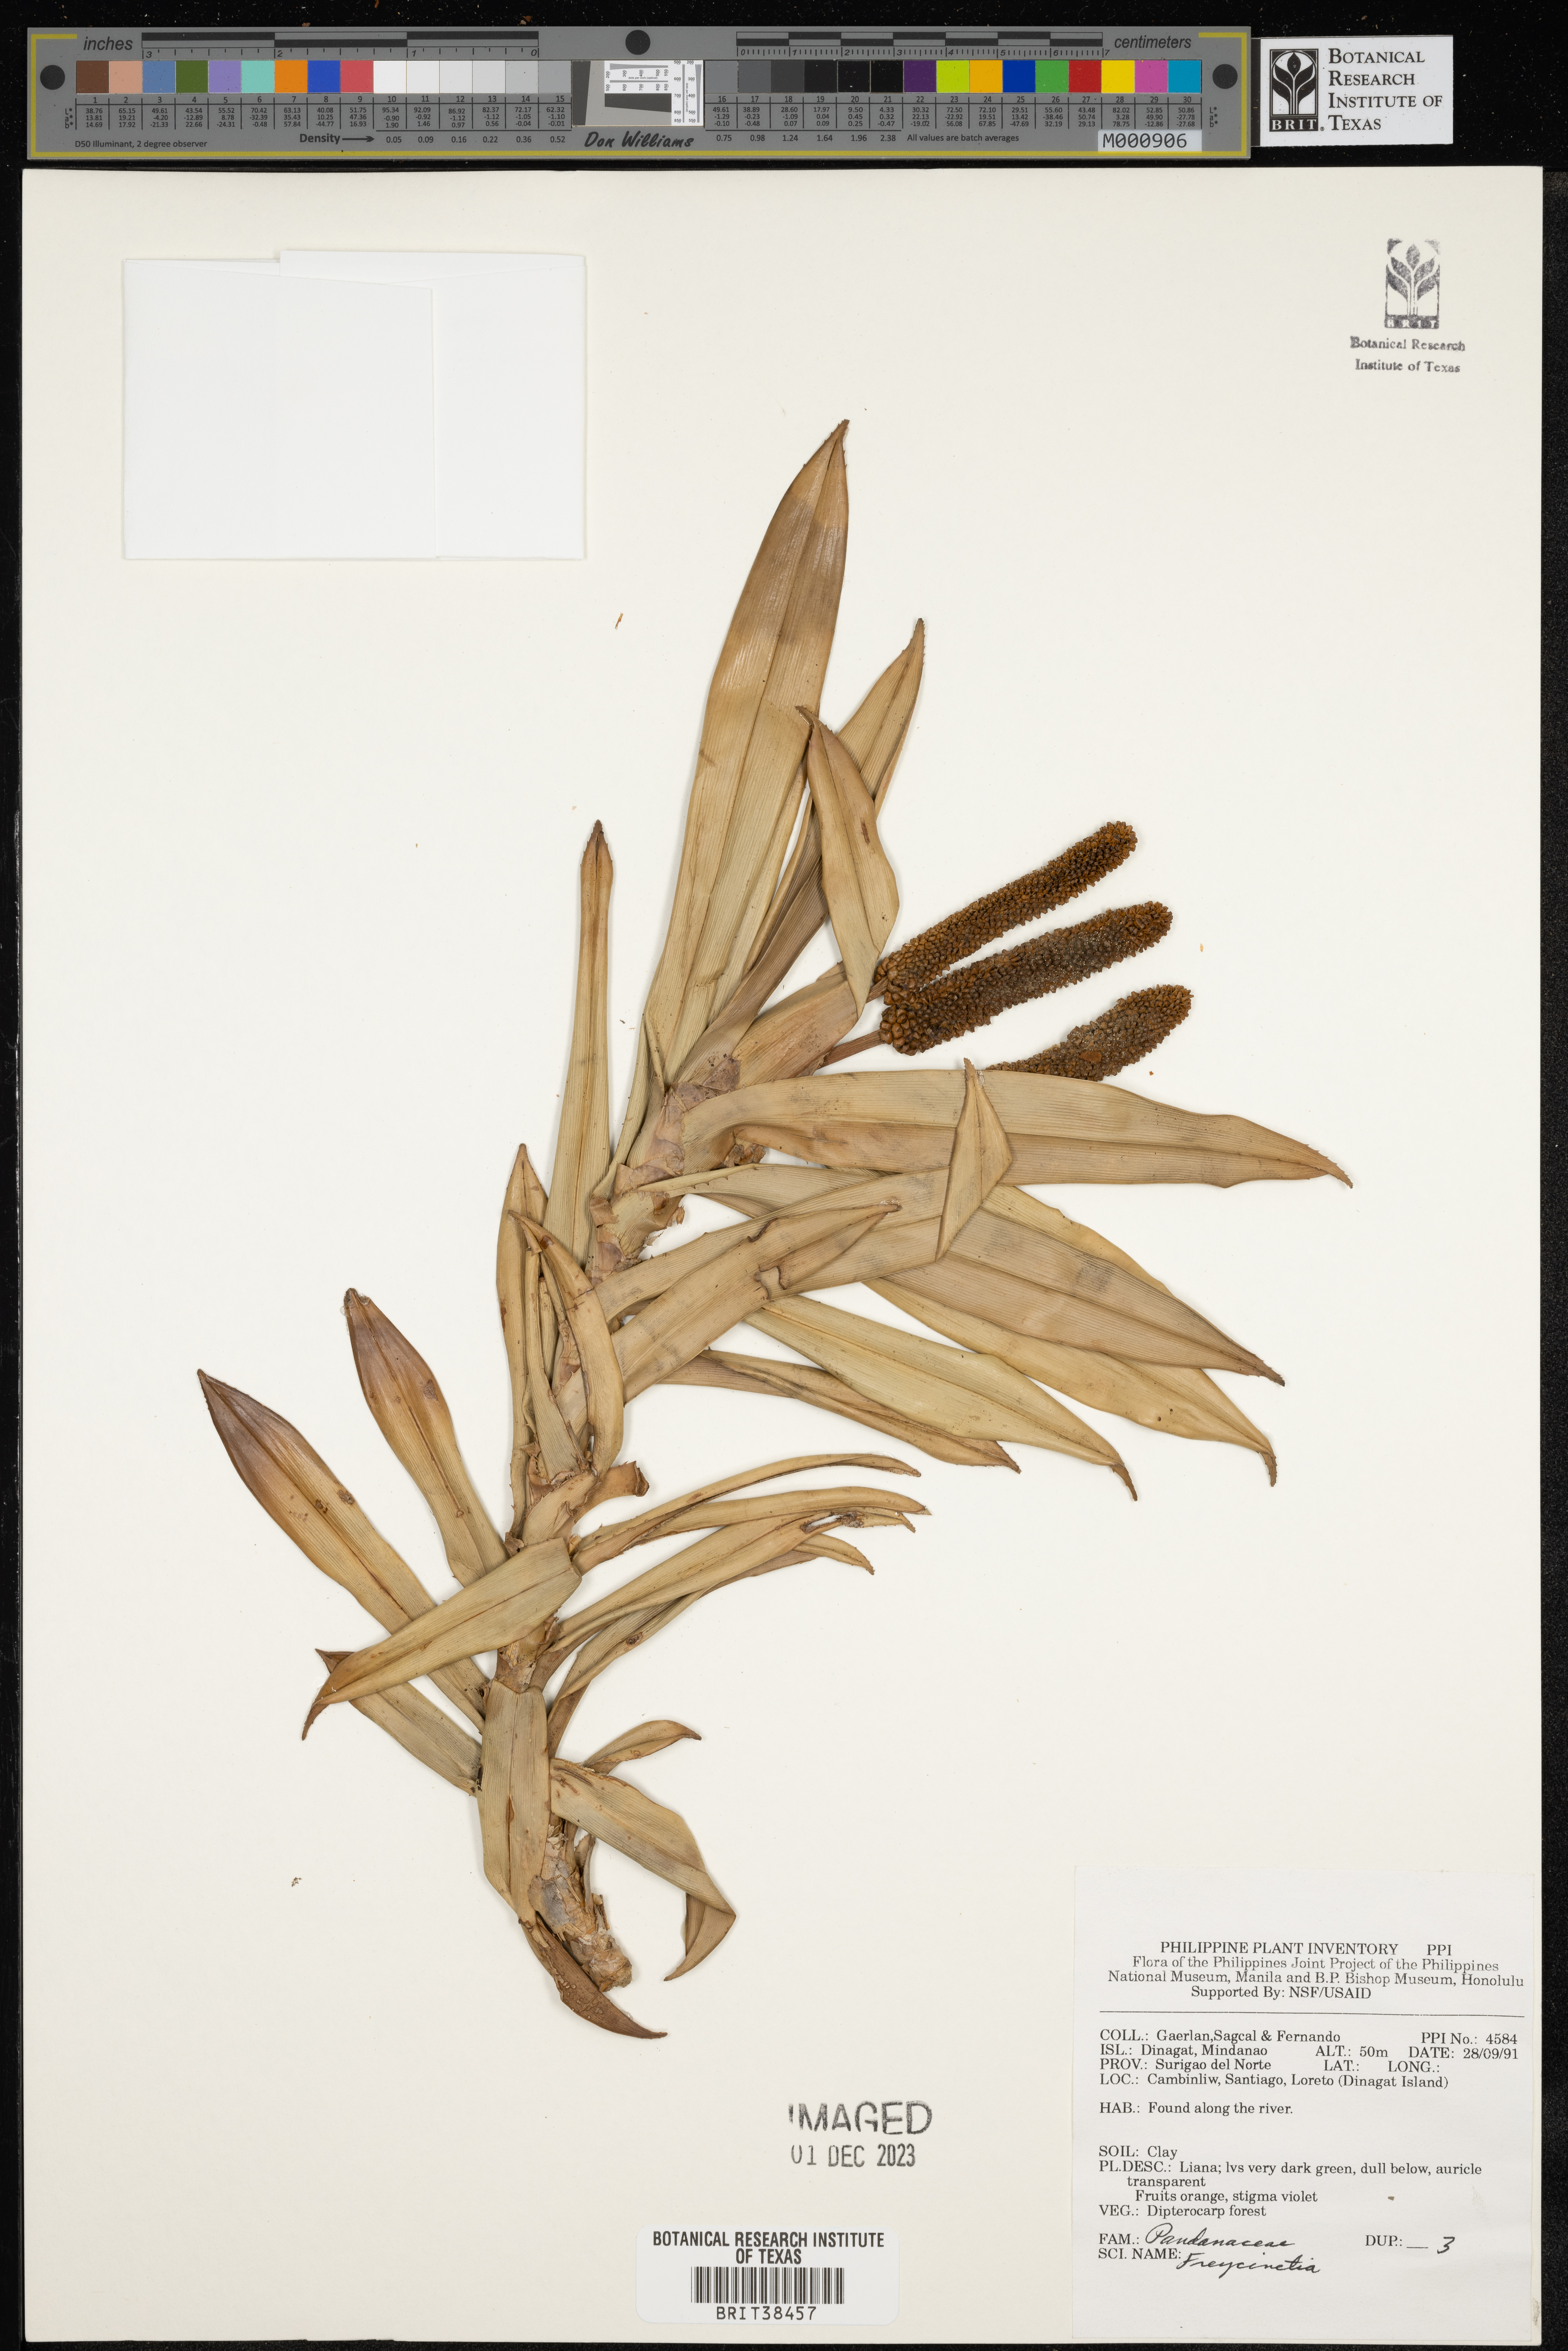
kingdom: Plantae
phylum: Tracheophyta
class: Liliopsida
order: Pandanales
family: Pandanaceae
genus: Freycinetia
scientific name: Freycinetia
